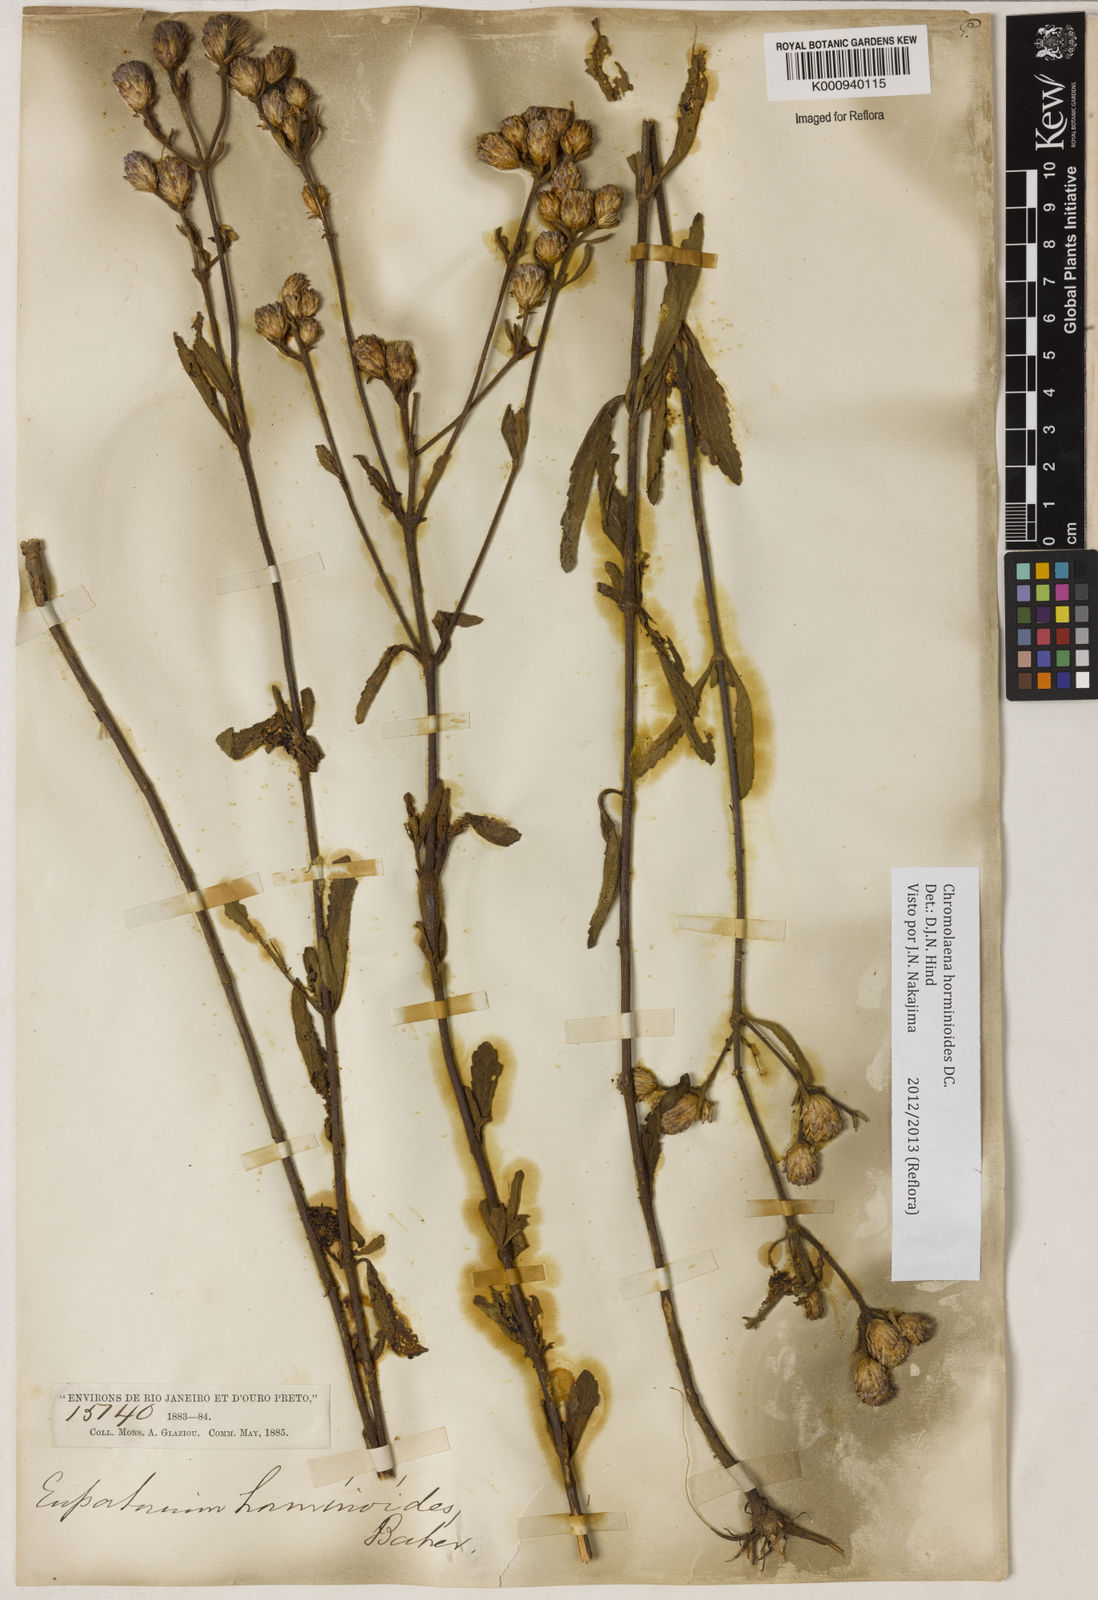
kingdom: Plantae
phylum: Tracheophyta
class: Magnoliopsida
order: Asterales
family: Asteraceae
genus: Chromolaena
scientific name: Chromolaena horminoides
